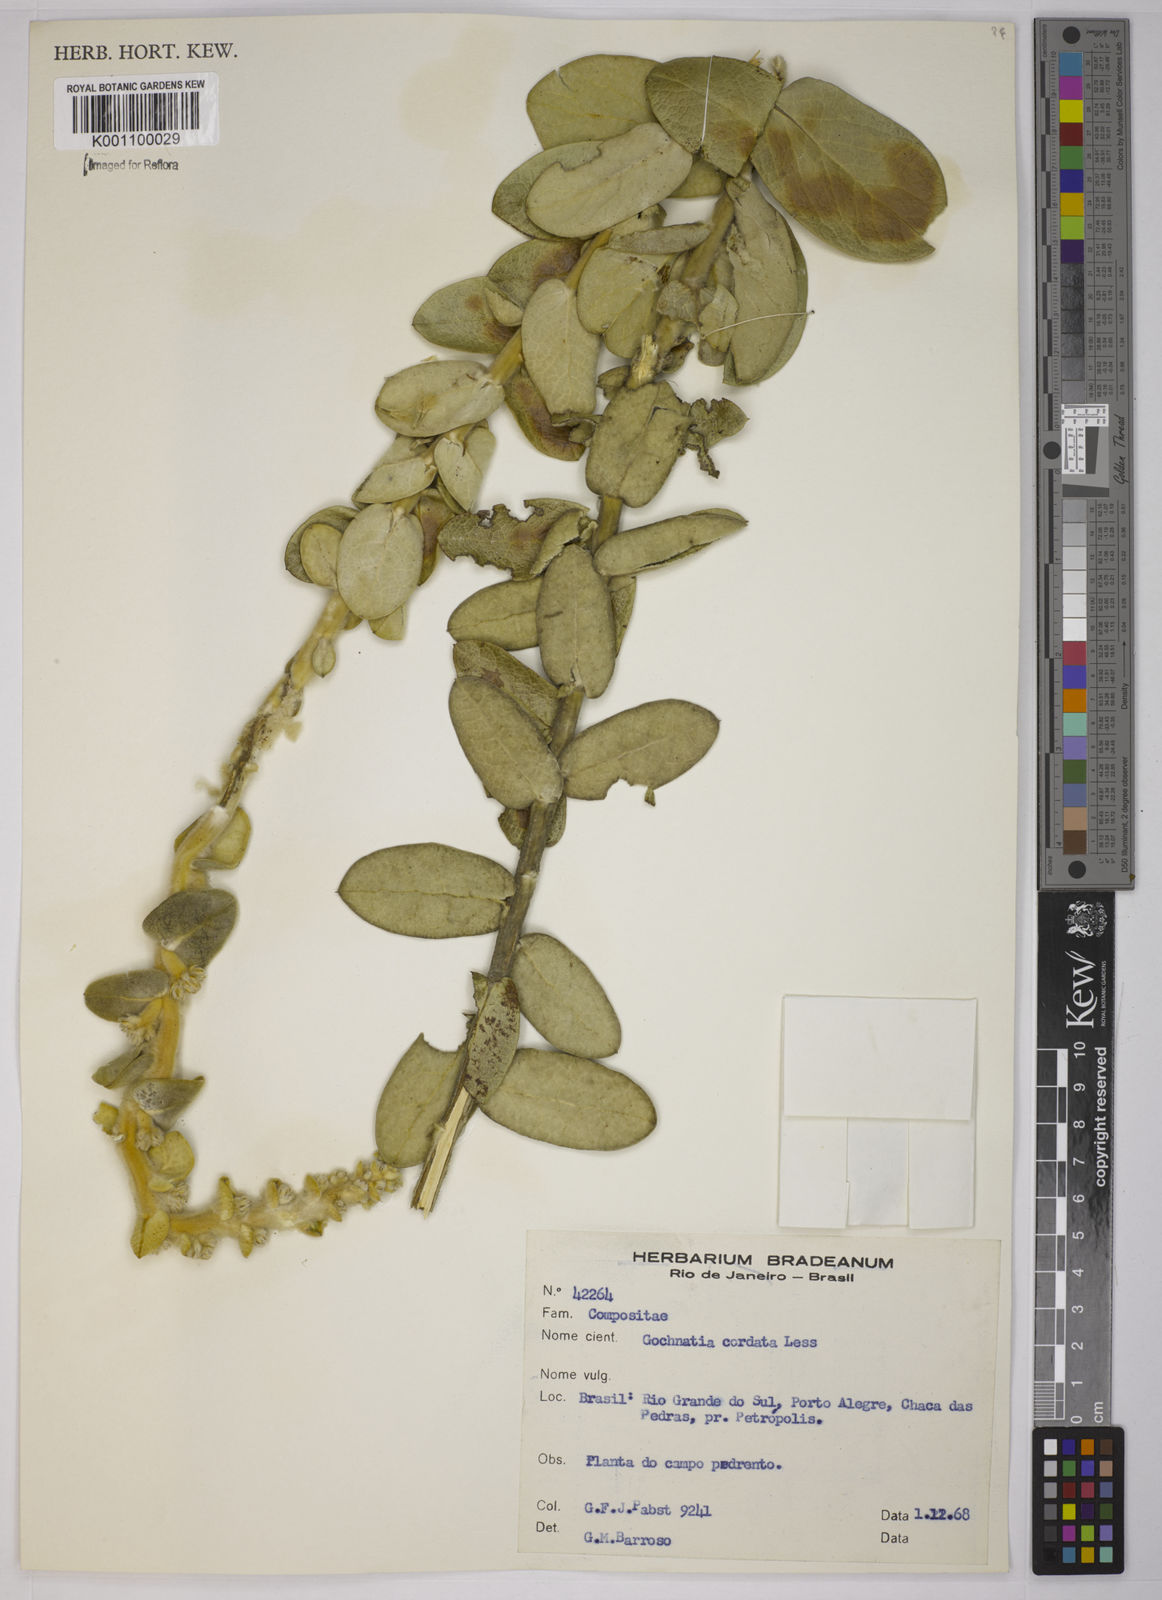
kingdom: Plantae
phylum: Tracheophyta
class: Magnoliopsida
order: Asterales
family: Asteraceae
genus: Gochnatia
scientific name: Gochnatia
